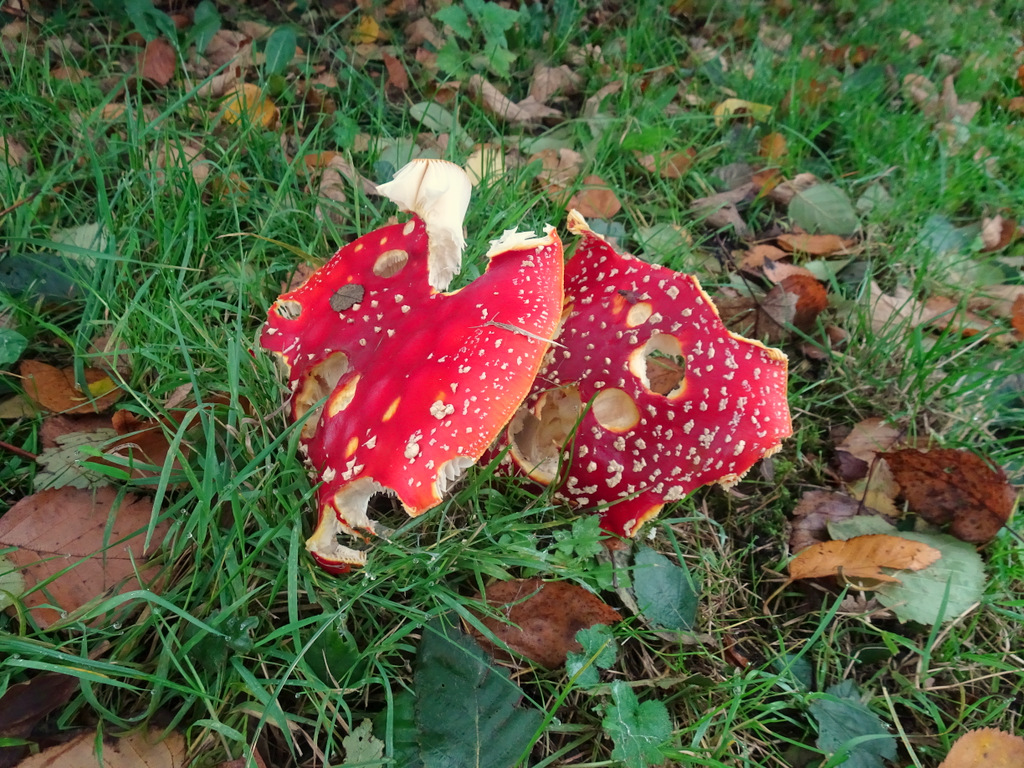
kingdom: Fungi
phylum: Basidiomycota
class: Agaricomycetes
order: Agaricales
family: Amanitaceae
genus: Amanita
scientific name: Amanita muscaria
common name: rød fluesvamp
